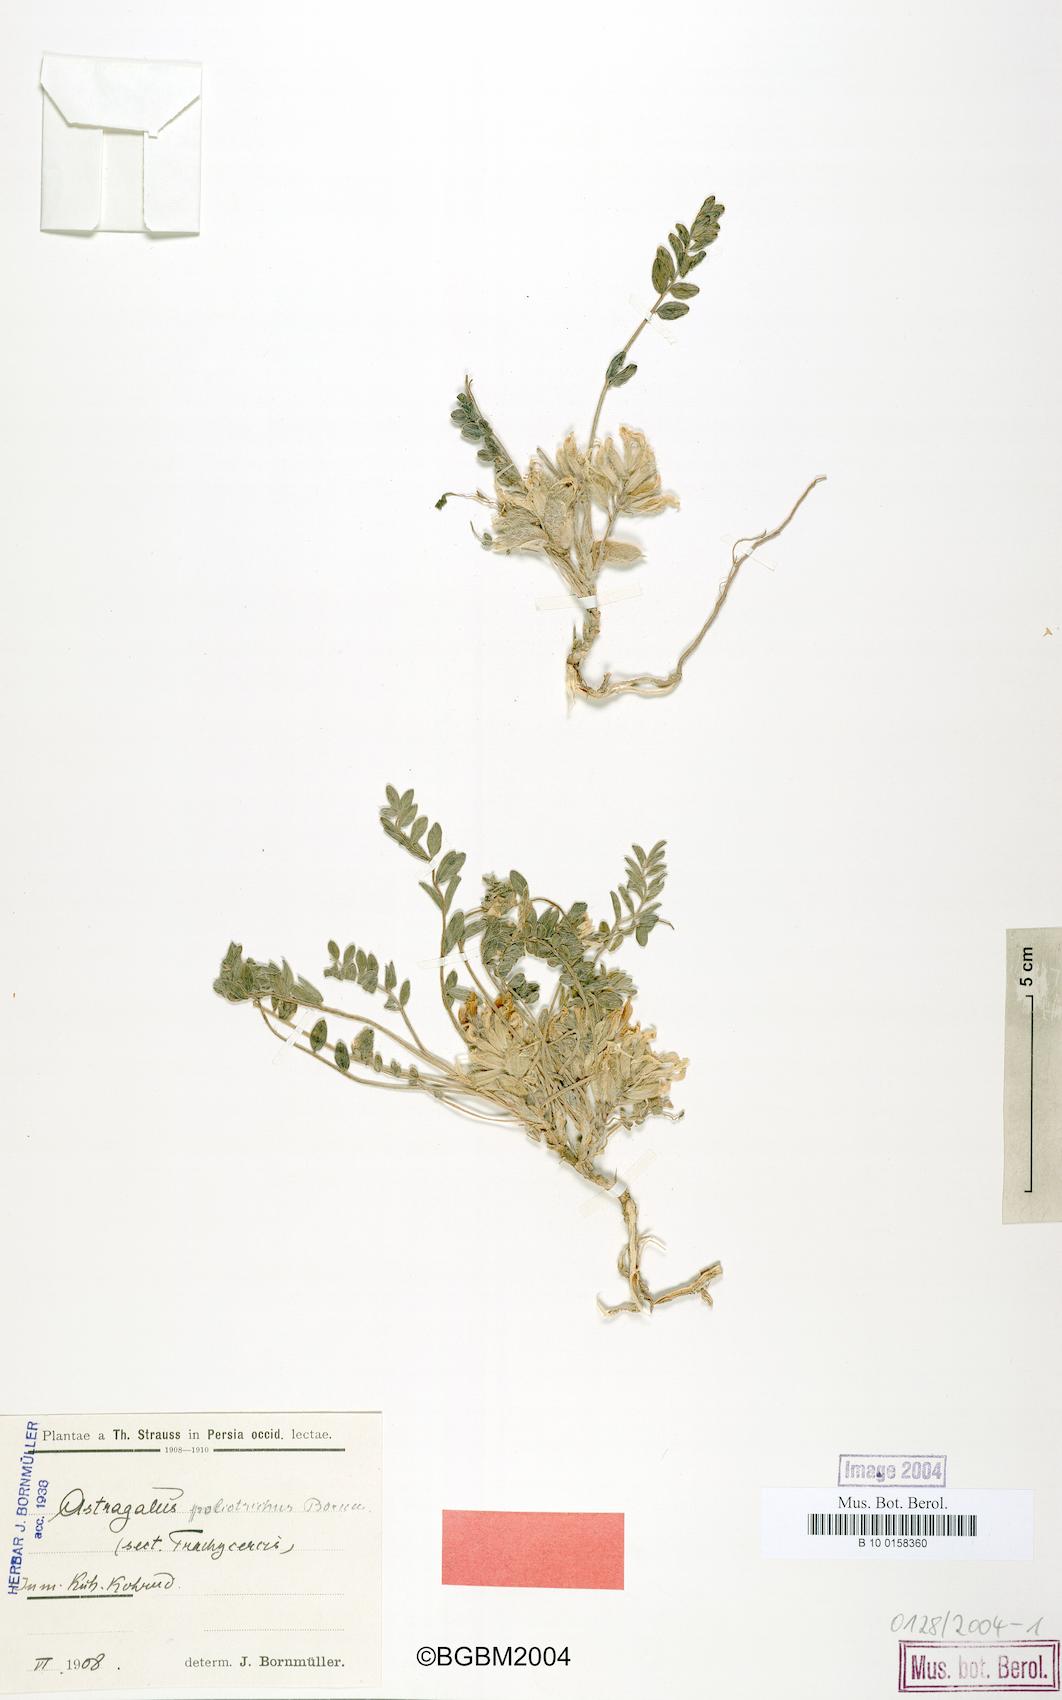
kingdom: Plantae
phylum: Tracheophyta
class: Magnoliopsida
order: Fabales
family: Fabaceae
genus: Astragalus
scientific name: Astragalus poliotrichus
